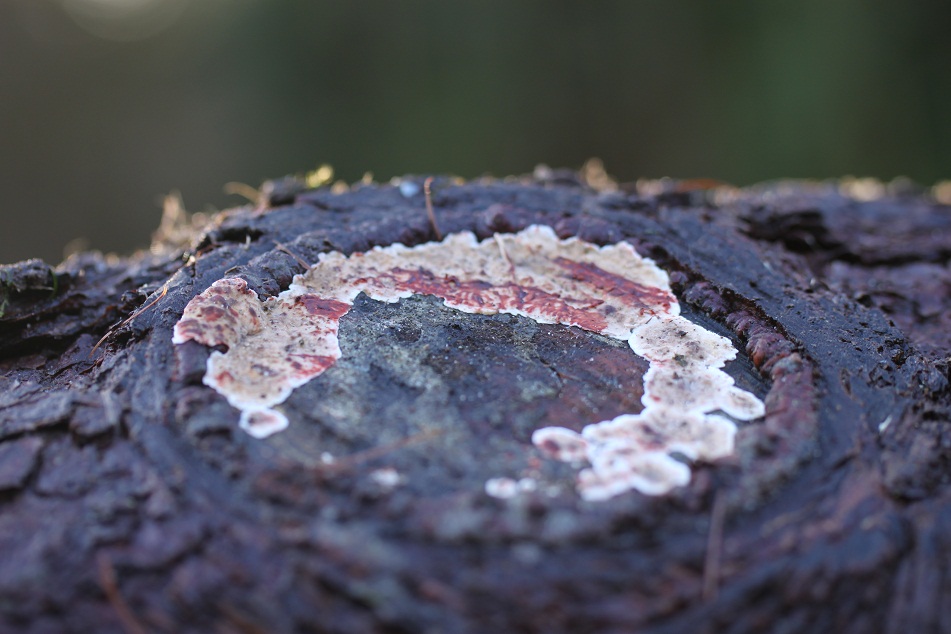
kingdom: Fungi
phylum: Basidiomycota
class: Agaricomycetes
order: Russulales
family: Stereaceae
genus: Stereum
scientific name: Stereum sanguinolentum
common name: blødende lædersvamp
